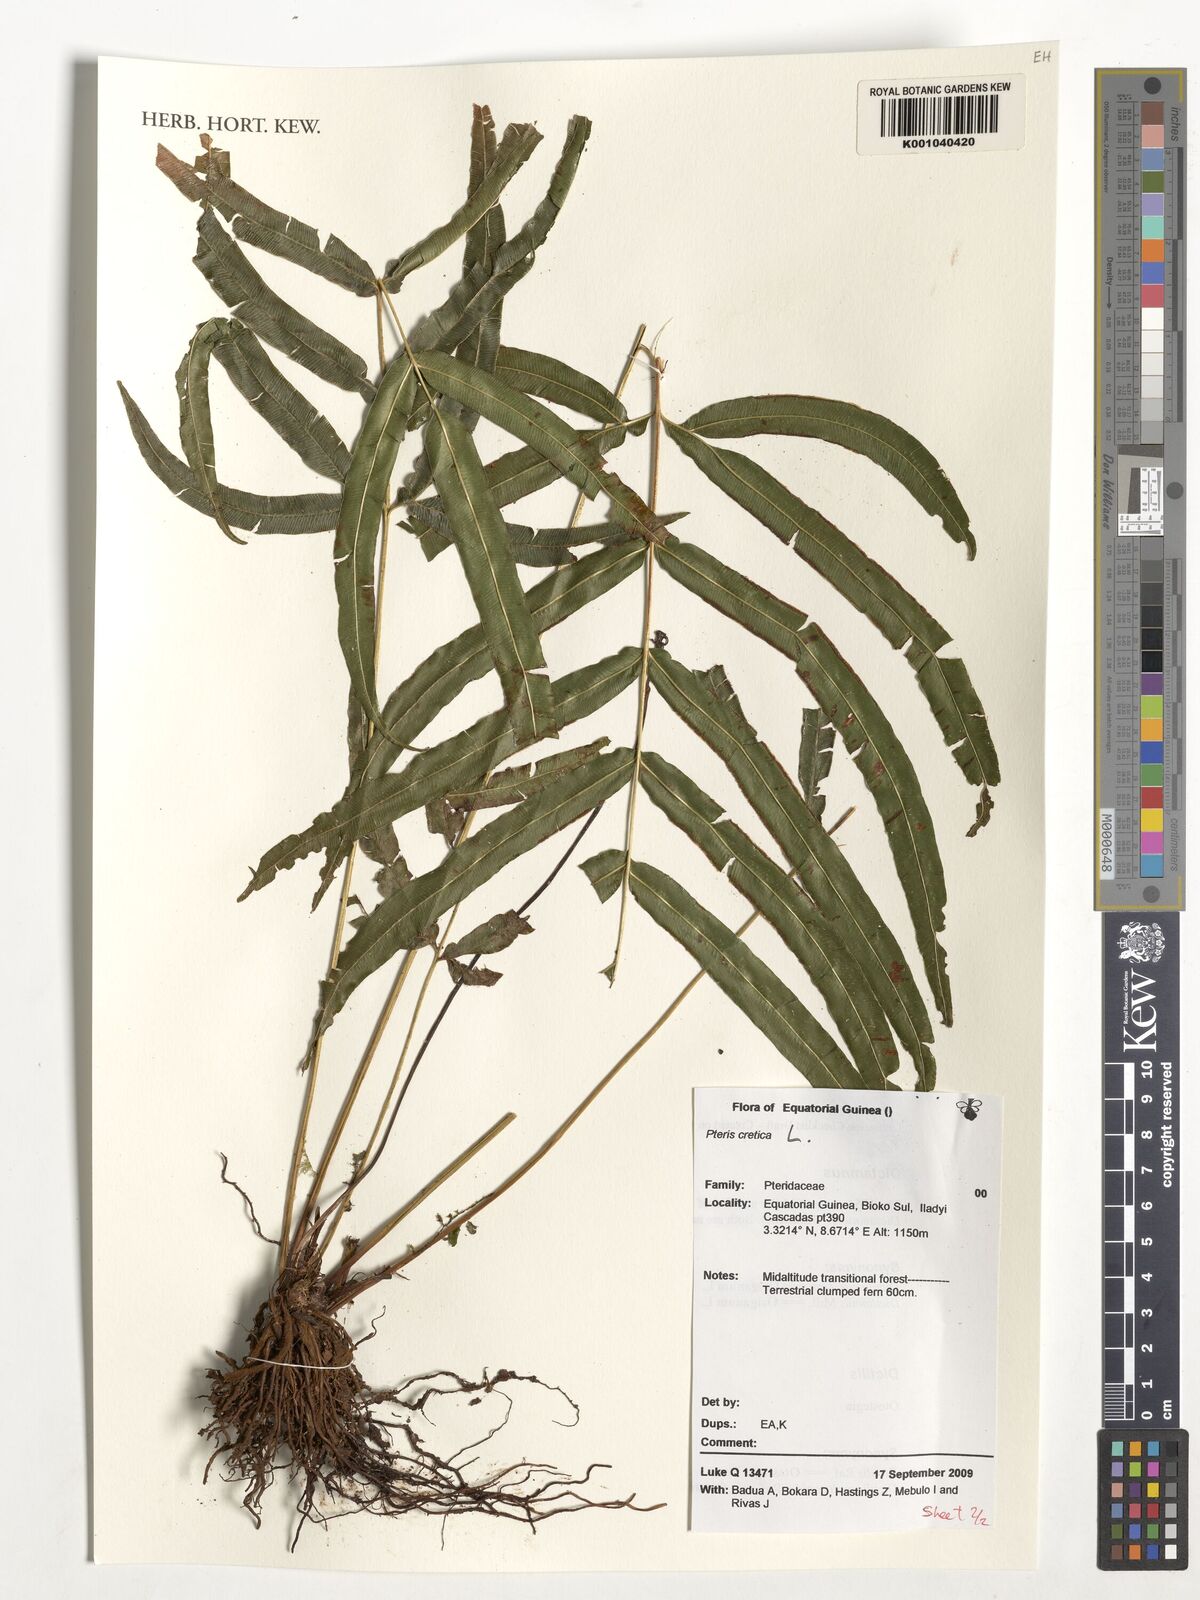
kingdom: Plantae
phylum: Tracheophyta
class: Polypodiopsida
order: Polypodiales
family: Pteridaceae
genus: Pteris
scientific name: Pteris cretica
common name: Ribbon fern
